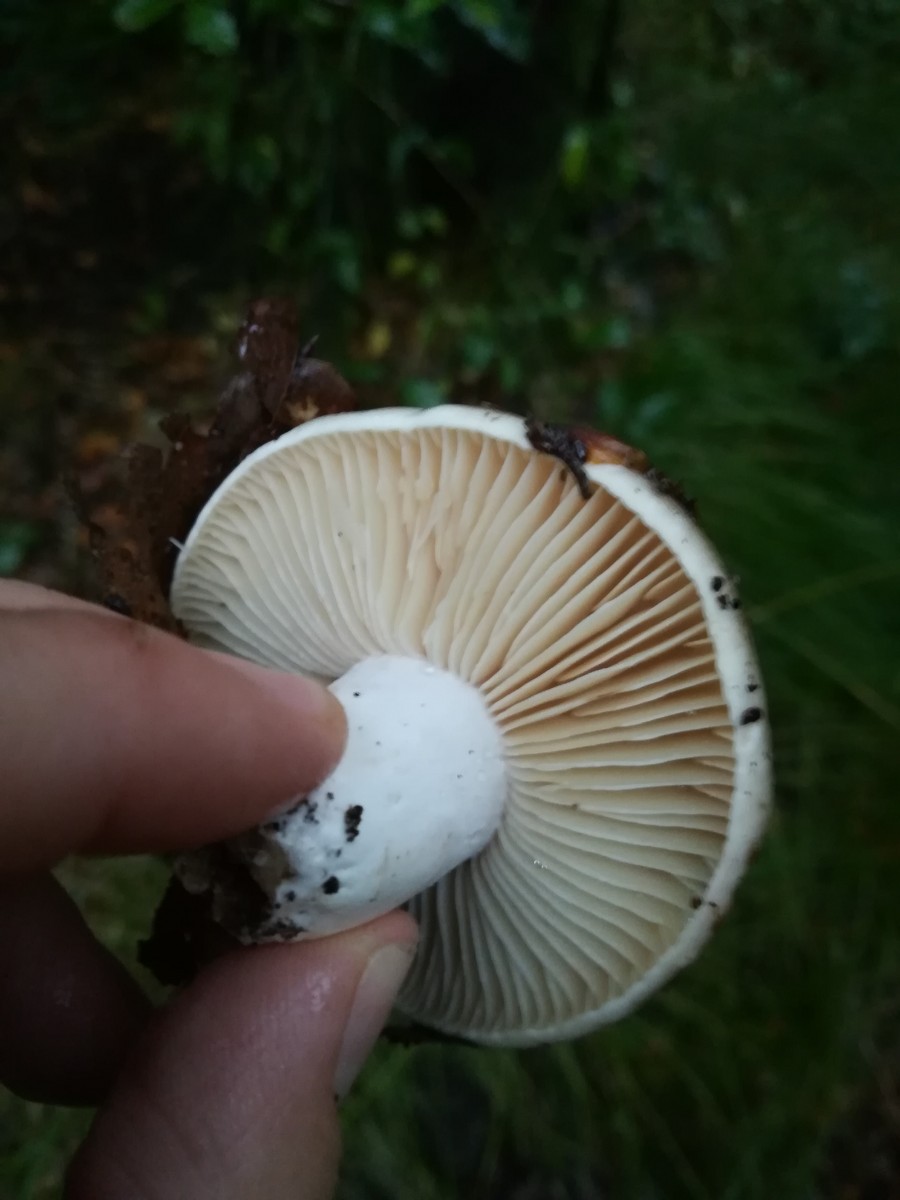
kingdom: Fungi
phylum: Basidiomycota
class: Agaricomycetes
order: Russulales
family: Russulaceae
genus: Russula
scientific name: Russula adusta
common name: sværtende skørhat
